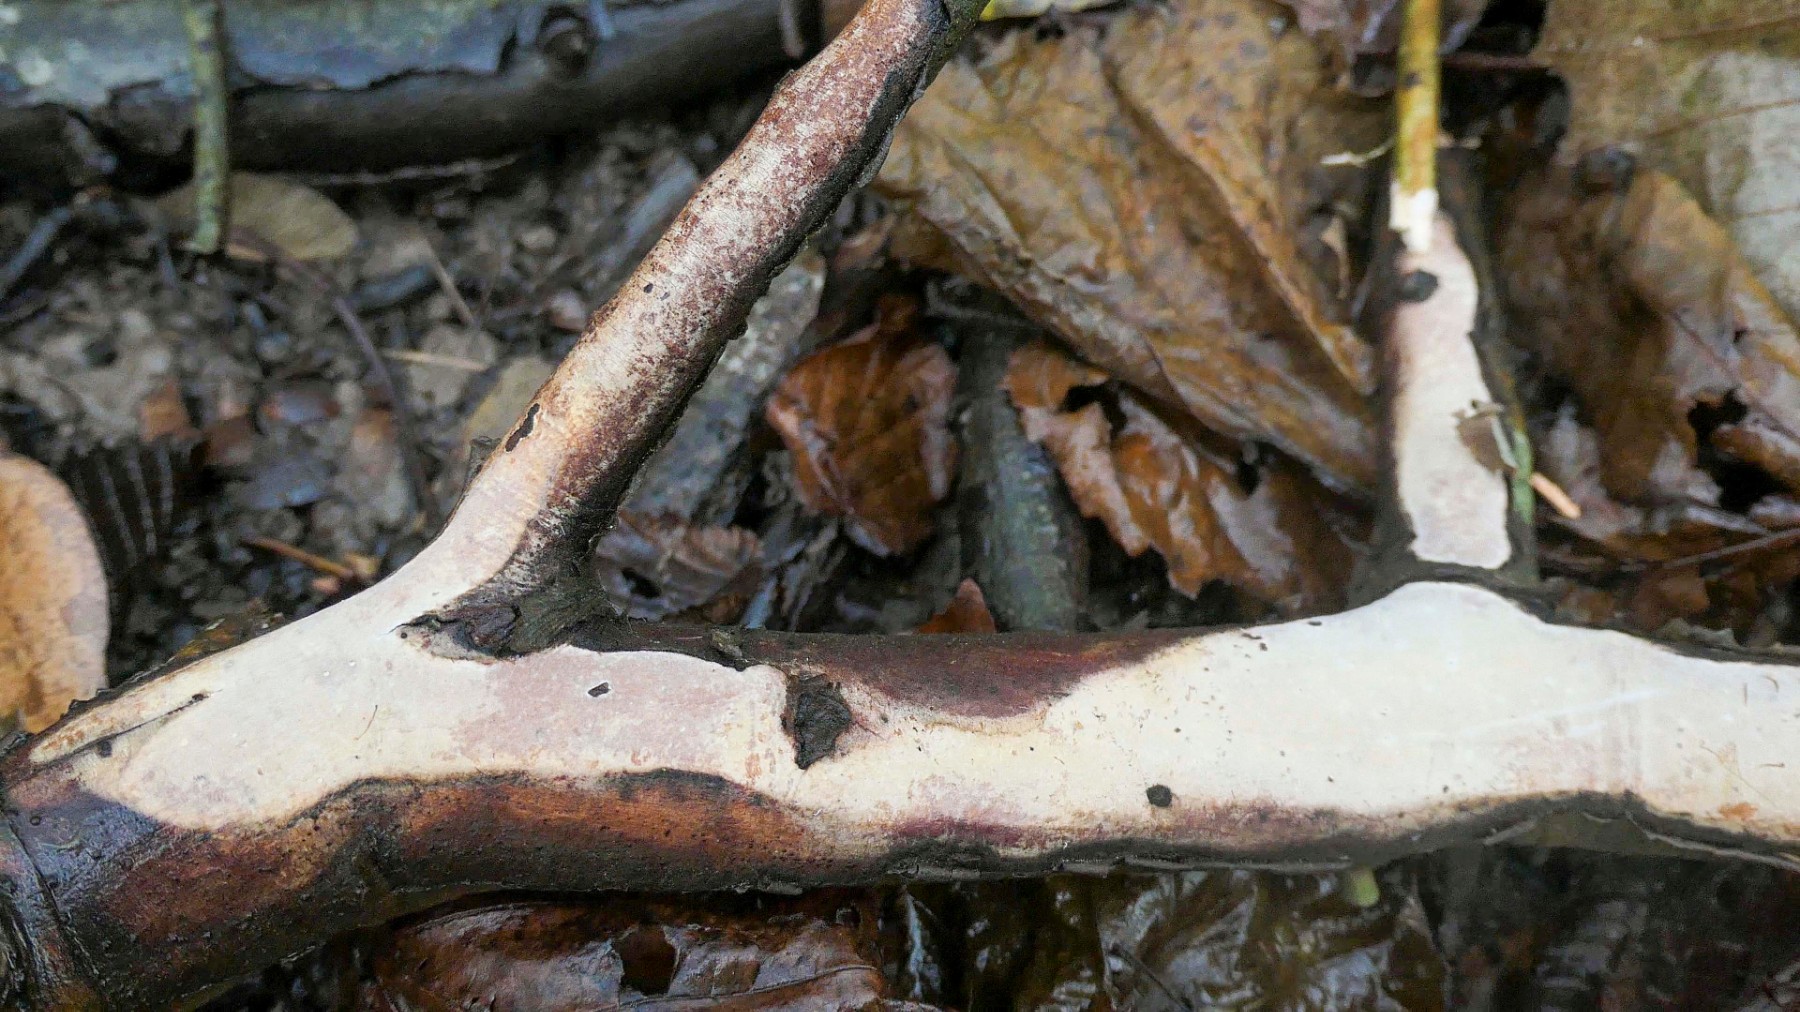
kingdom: Fungi
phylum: Basidiomycota
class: Agaricomycetes
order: Corticiales
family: Vuilleminiaceae
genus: Vuilleminia
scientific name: Vuilleminia cystidiata
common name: tjørne-barksprænger
